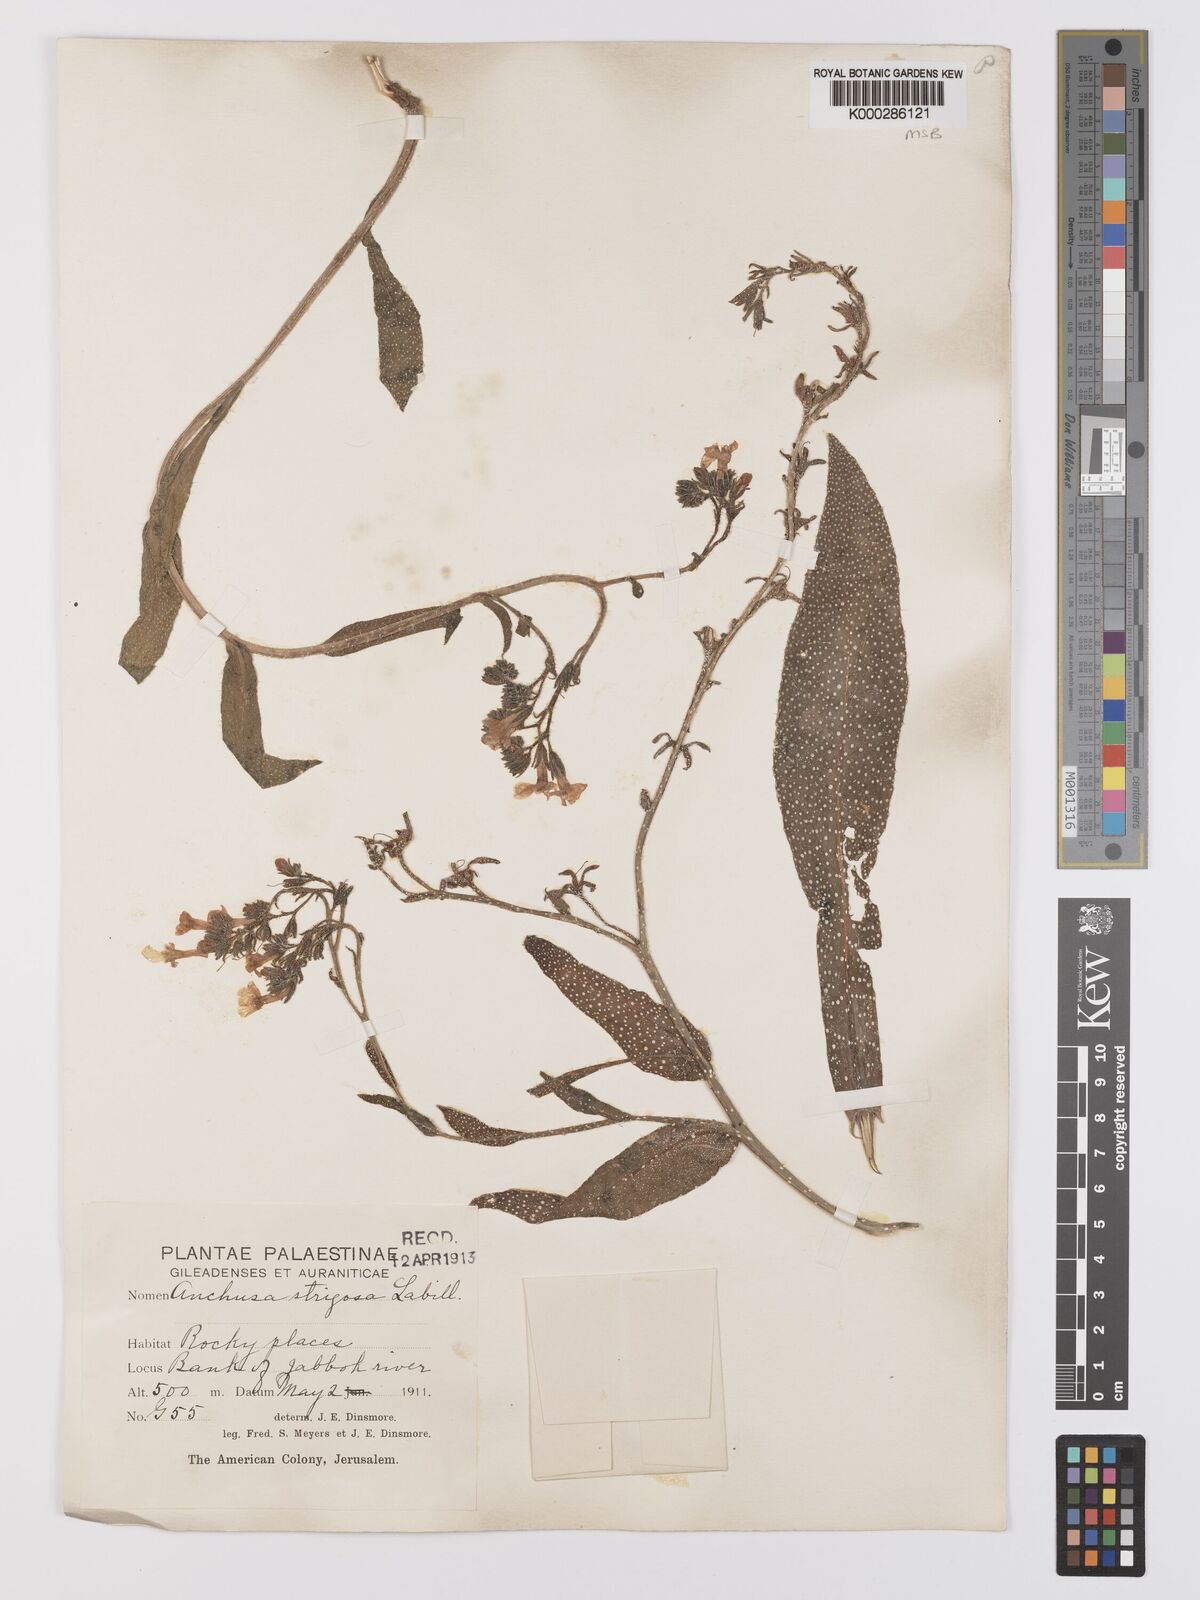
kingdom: Plantae
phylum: Tracheophyta
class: Magnoliopsida
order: Boraginales
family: Boraginaceae
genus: Anchusa
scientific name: Anchusa strigosa
